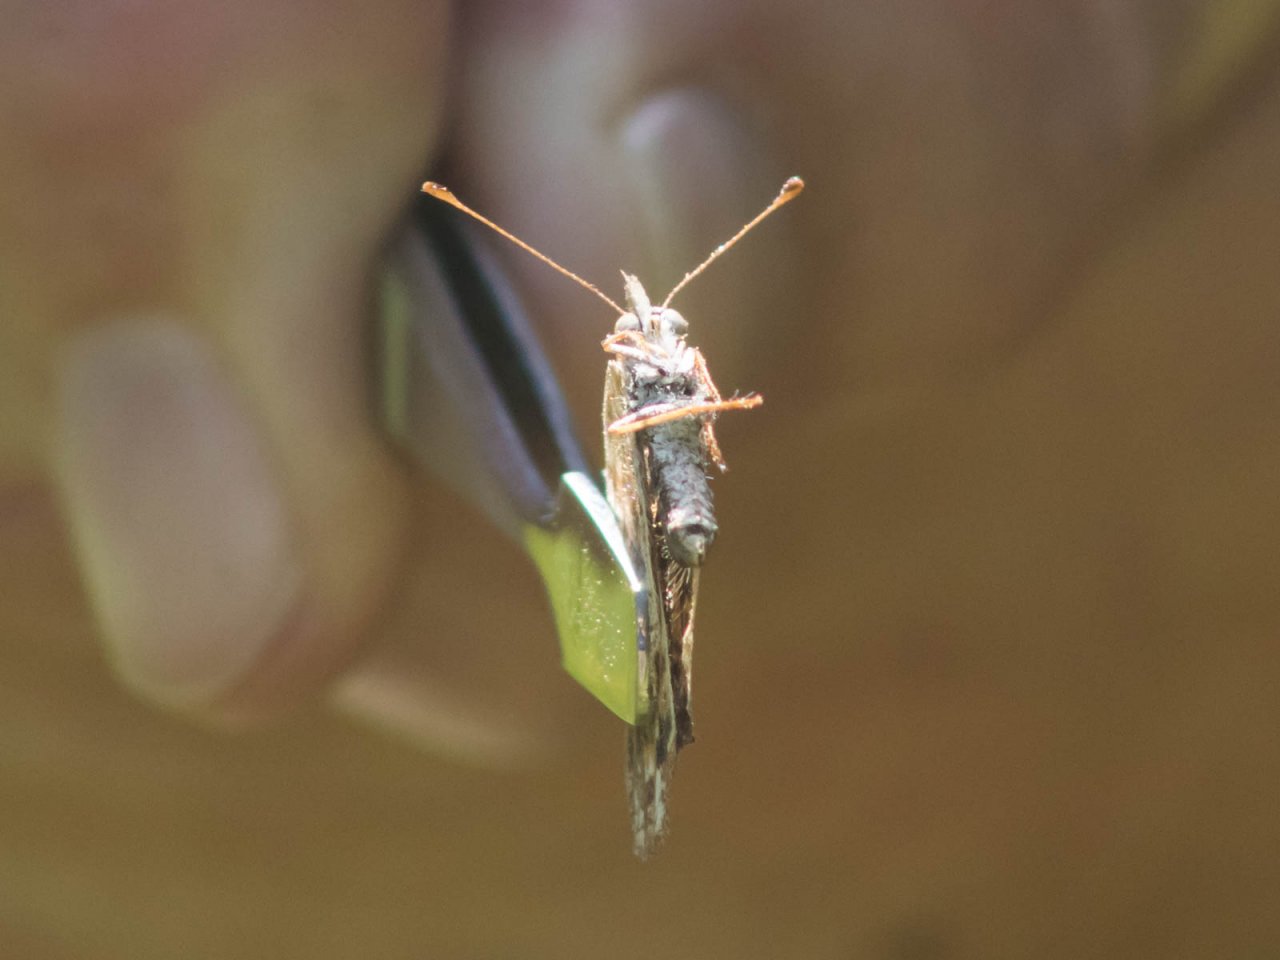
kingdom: Animalia
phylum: Arthropoda
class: Insecta
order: Lepidoptera
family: Nymphalidae
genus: Phyciodes
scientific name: Phyciodes tharos
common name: Northern Crescent
